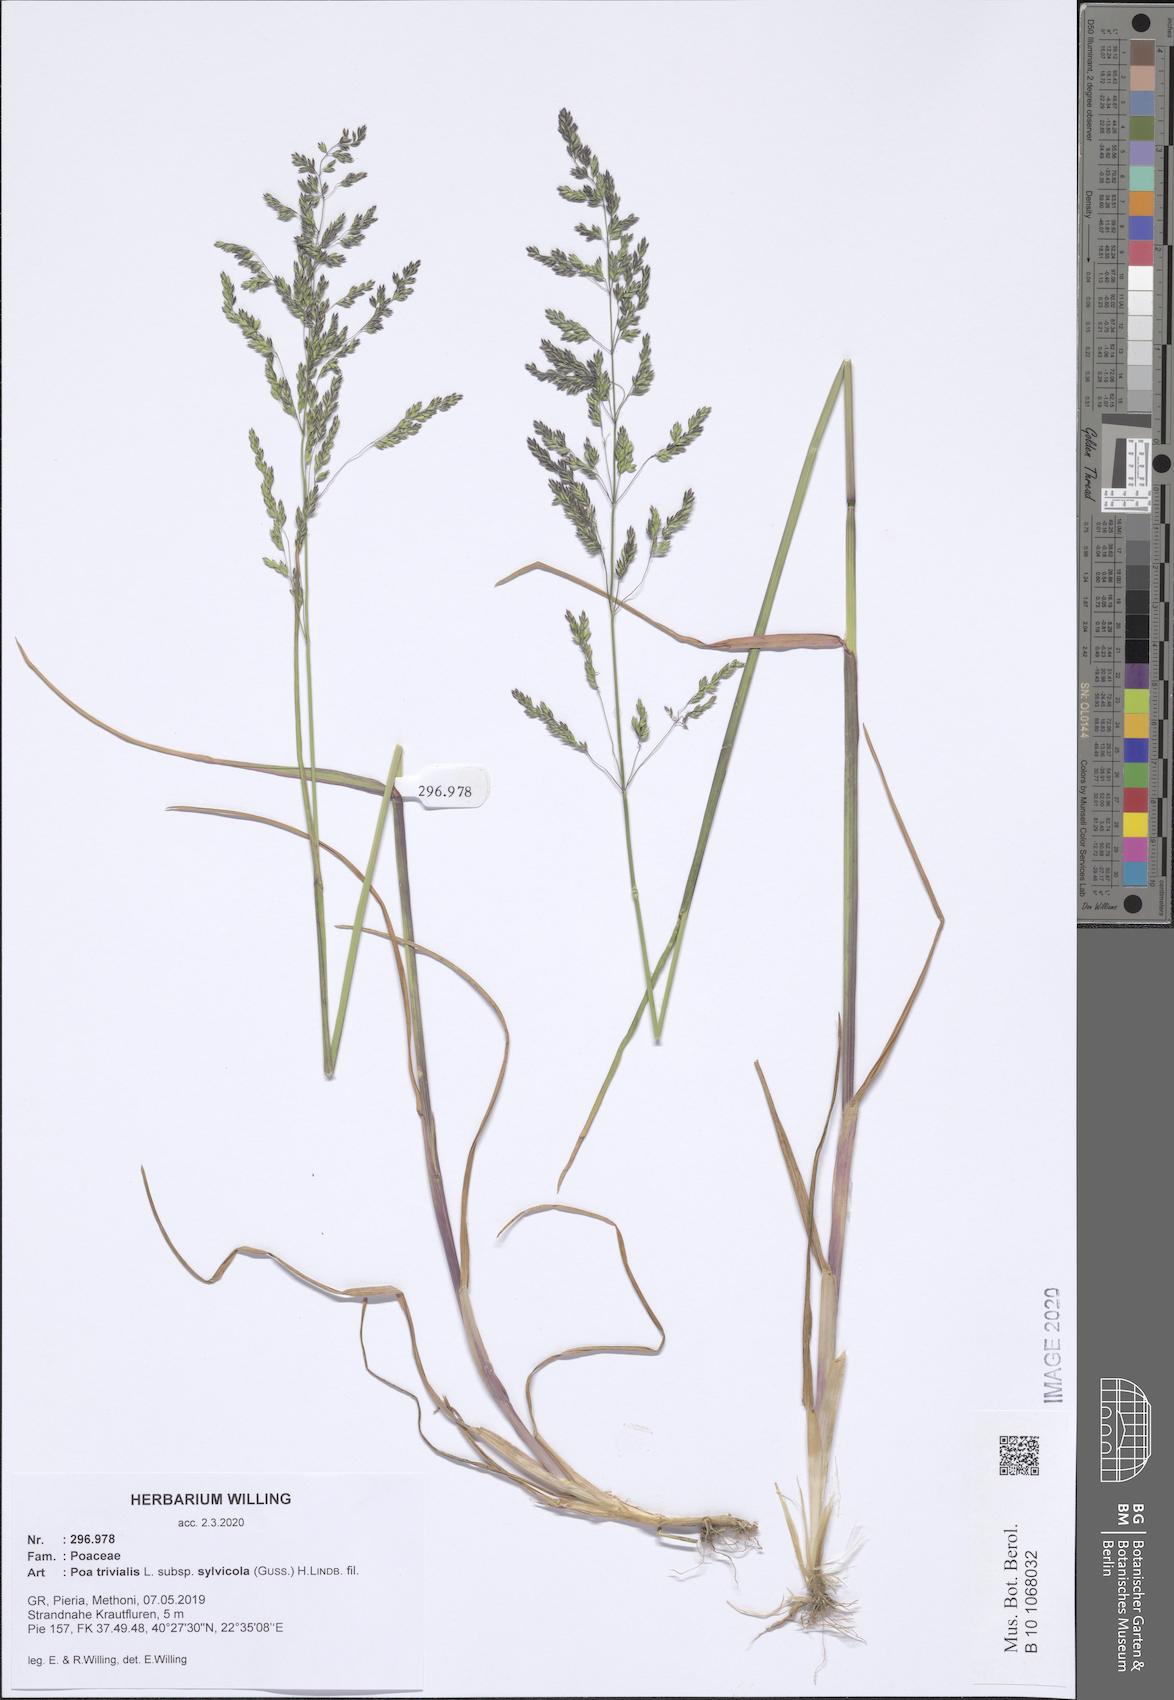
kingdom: Plantae
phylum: Tracheophyta
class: Liliopsida
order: Poales
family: Poaceae
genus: Poa
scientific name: Poa trivialis
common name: Rough bluegrass
